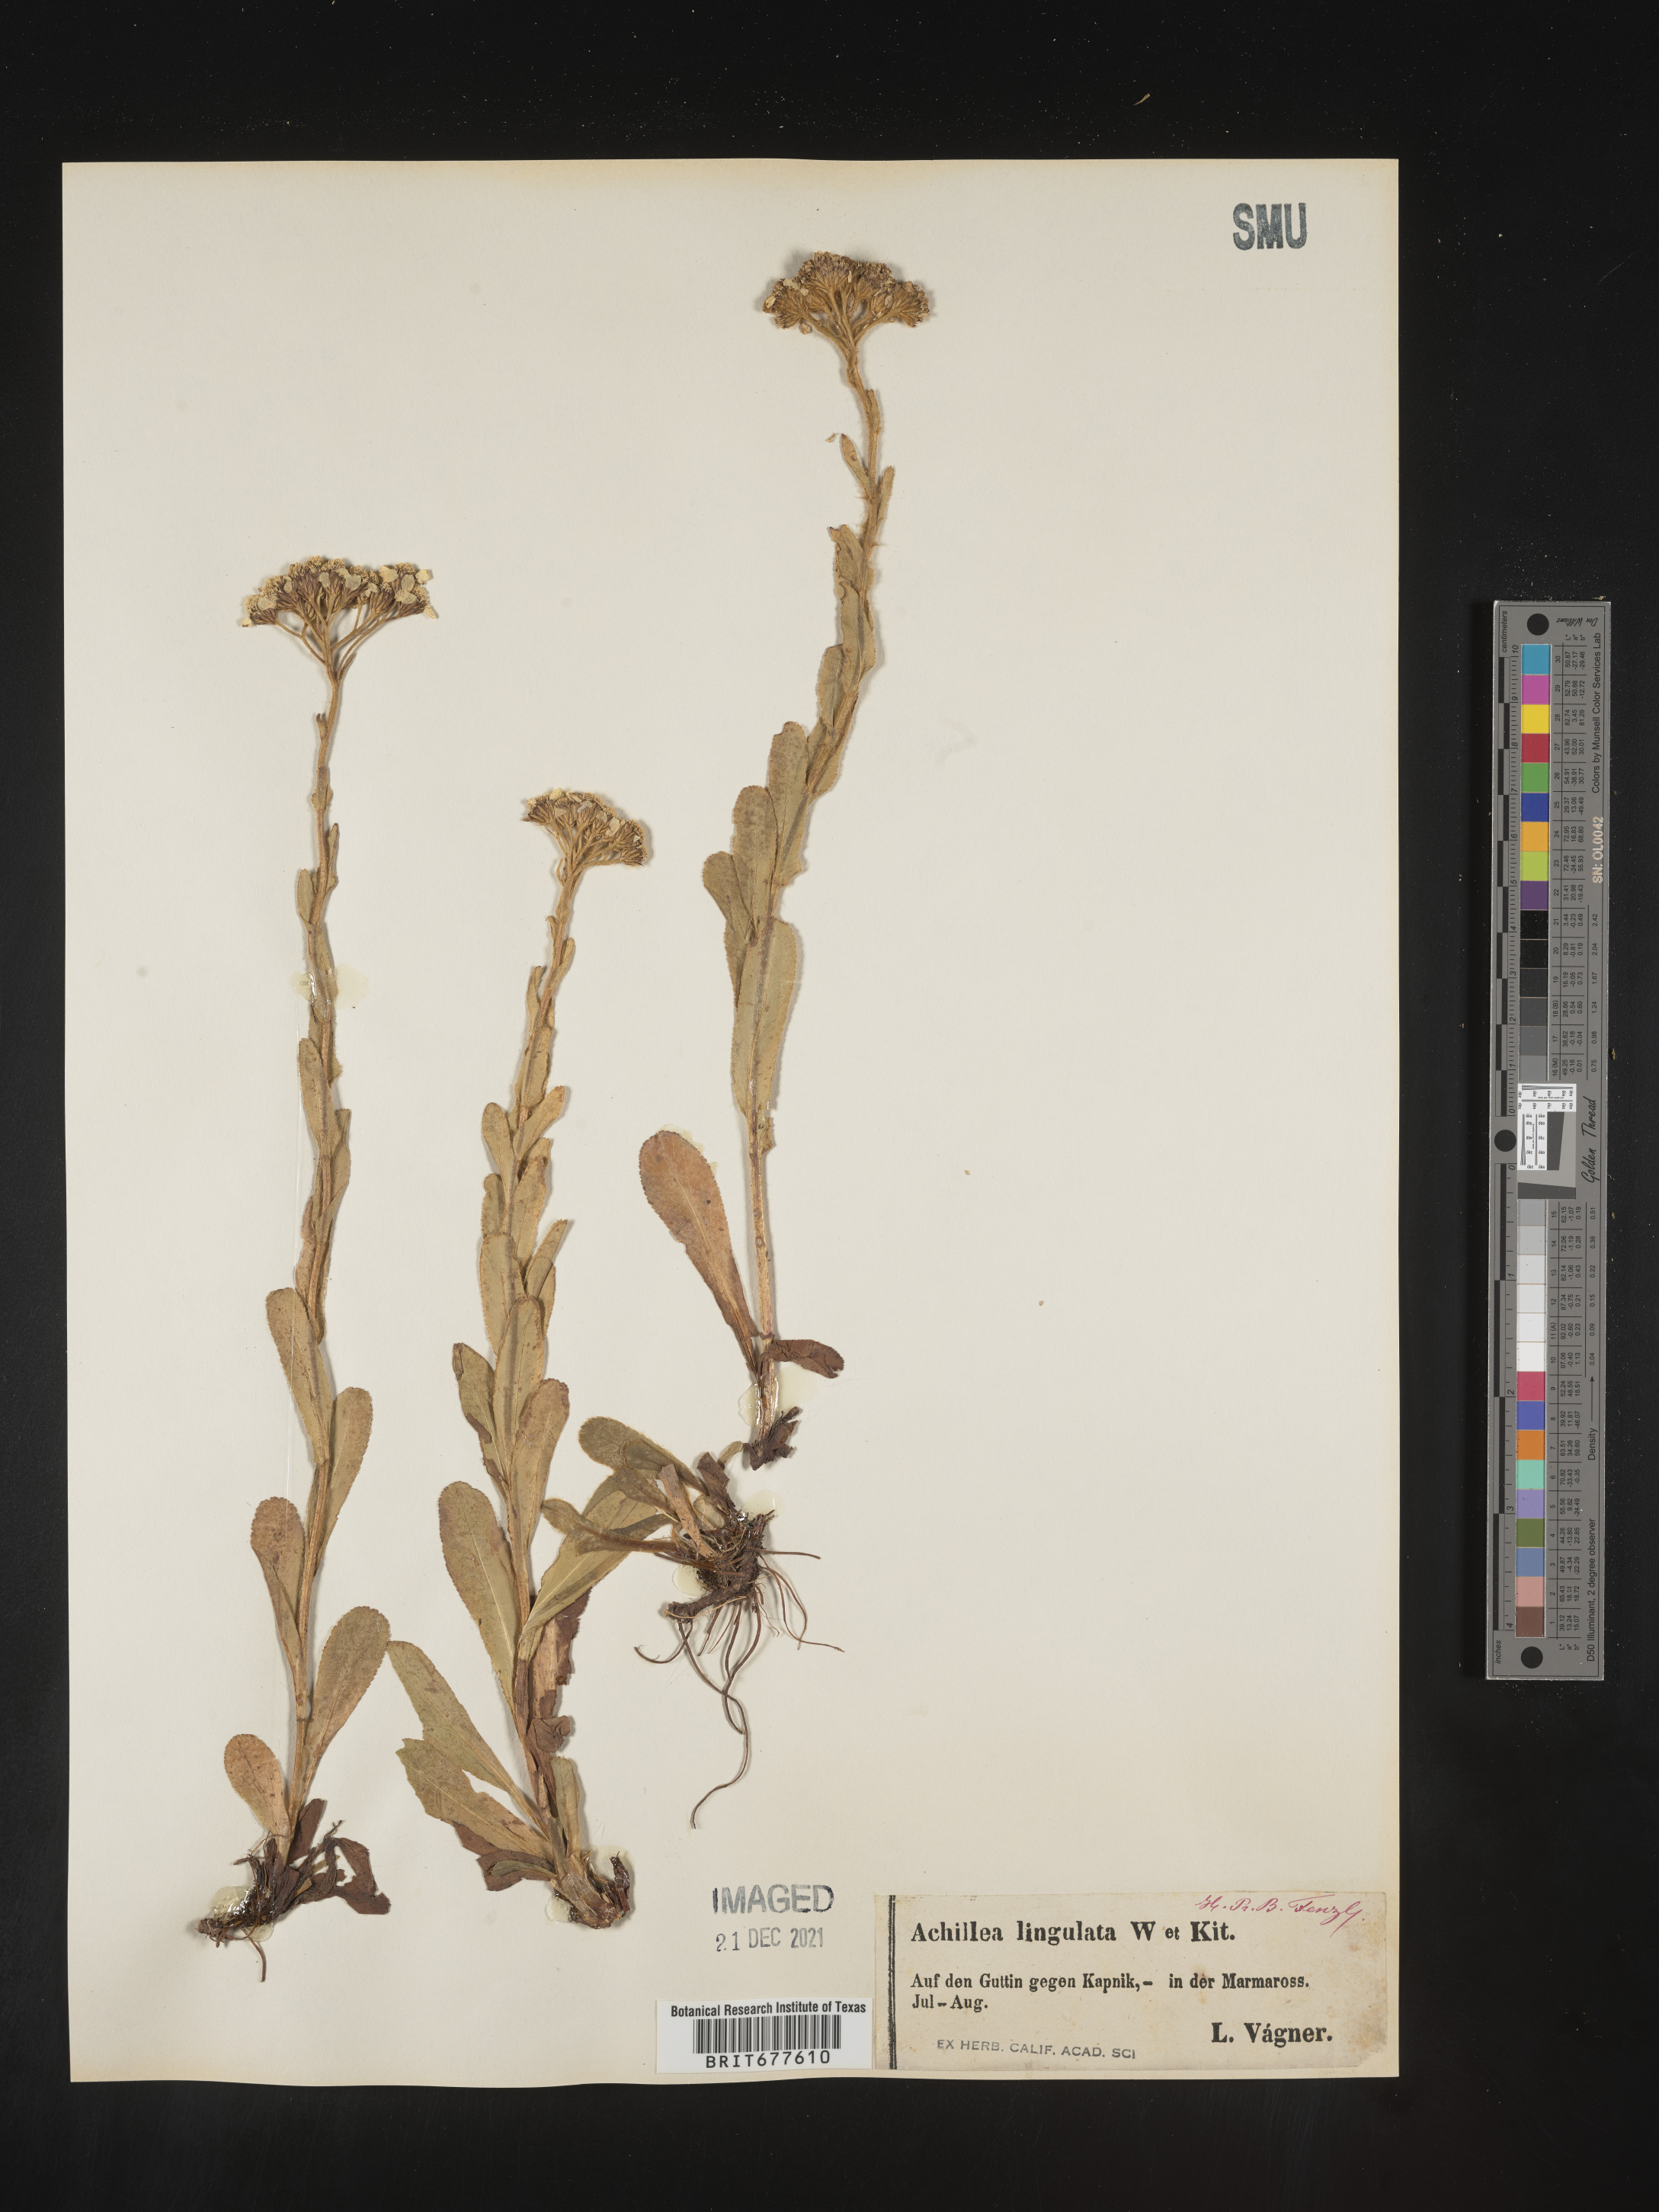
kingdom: Plantae
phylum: Tracheophyta
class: Magnoliopsida
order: Asterales
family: Asteraceae
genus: Achillea
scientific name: Achillea millefolium
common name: Yarrow
